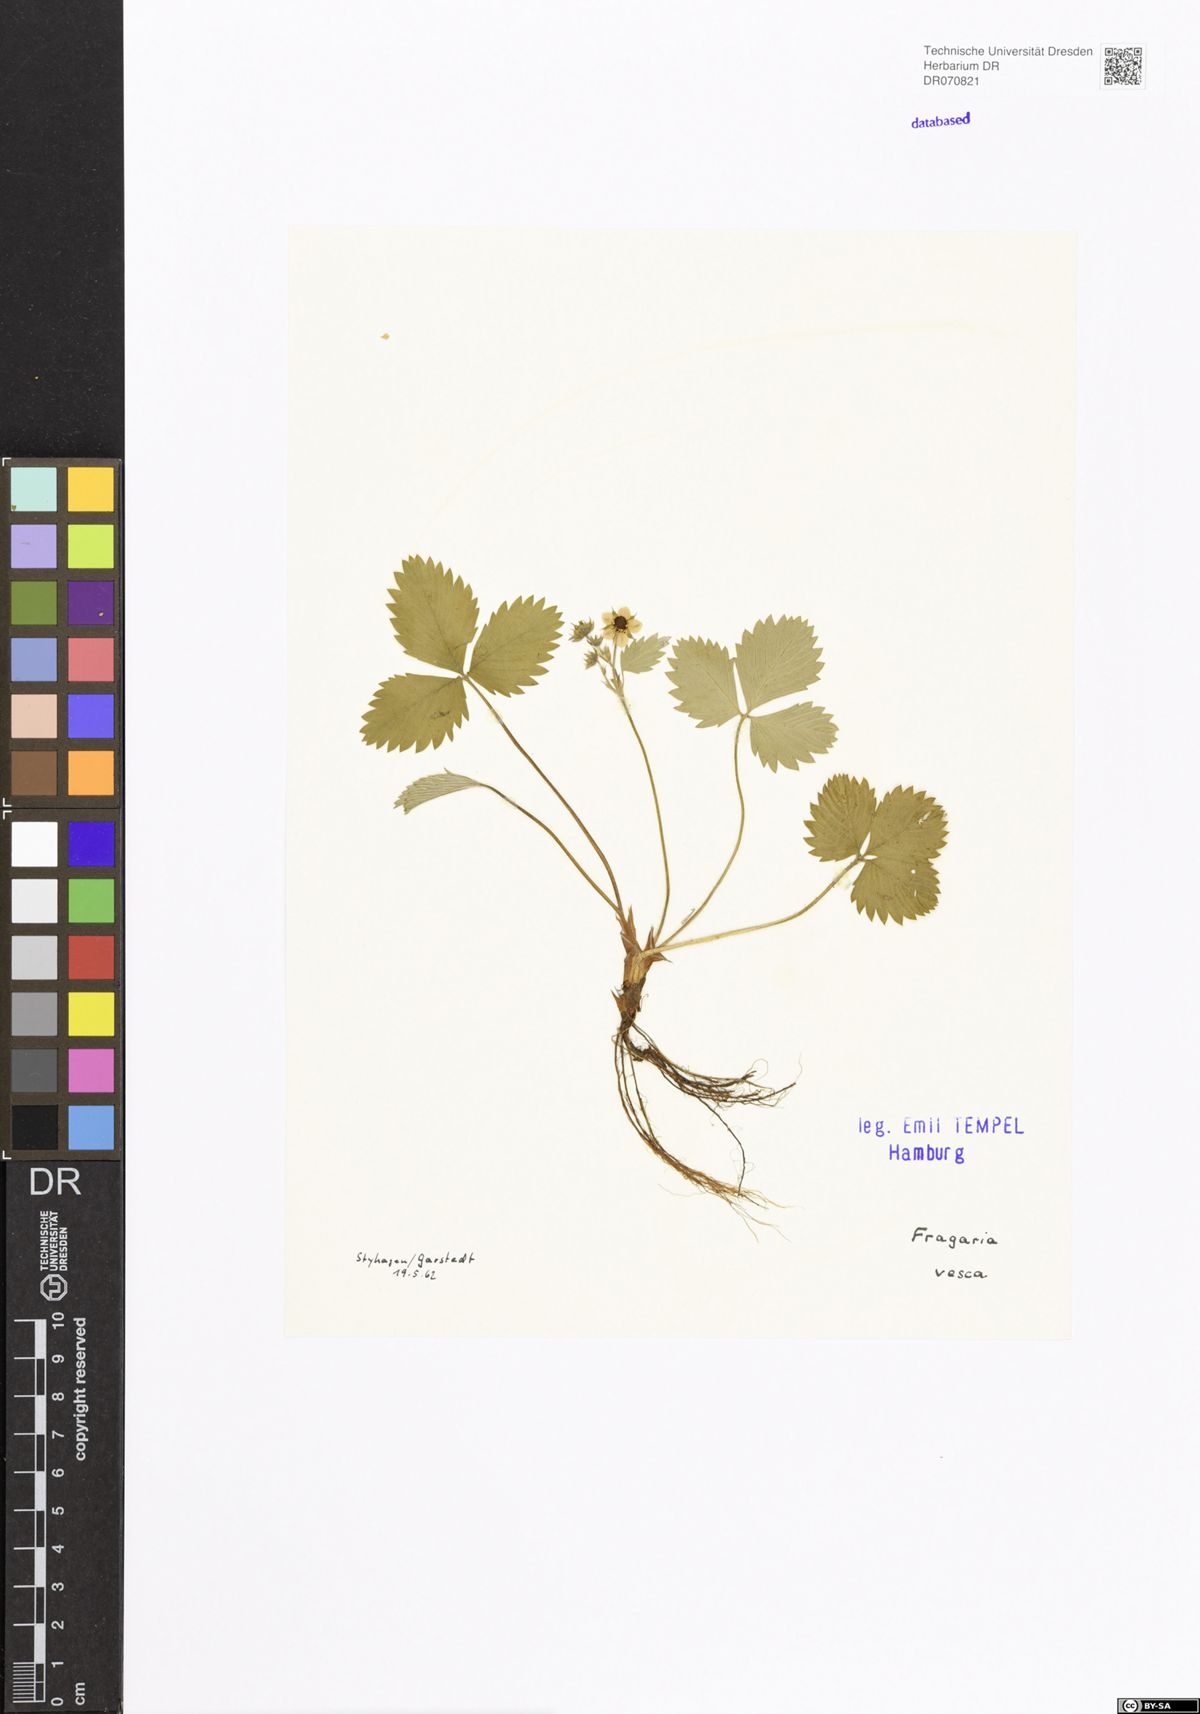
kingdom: Plantae
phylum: Tracheophyta
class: Magnoliopsida
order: Rosales
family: Rosaceae
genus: Fragaria
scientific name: Fragaria vesca
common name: Wild strawberry
